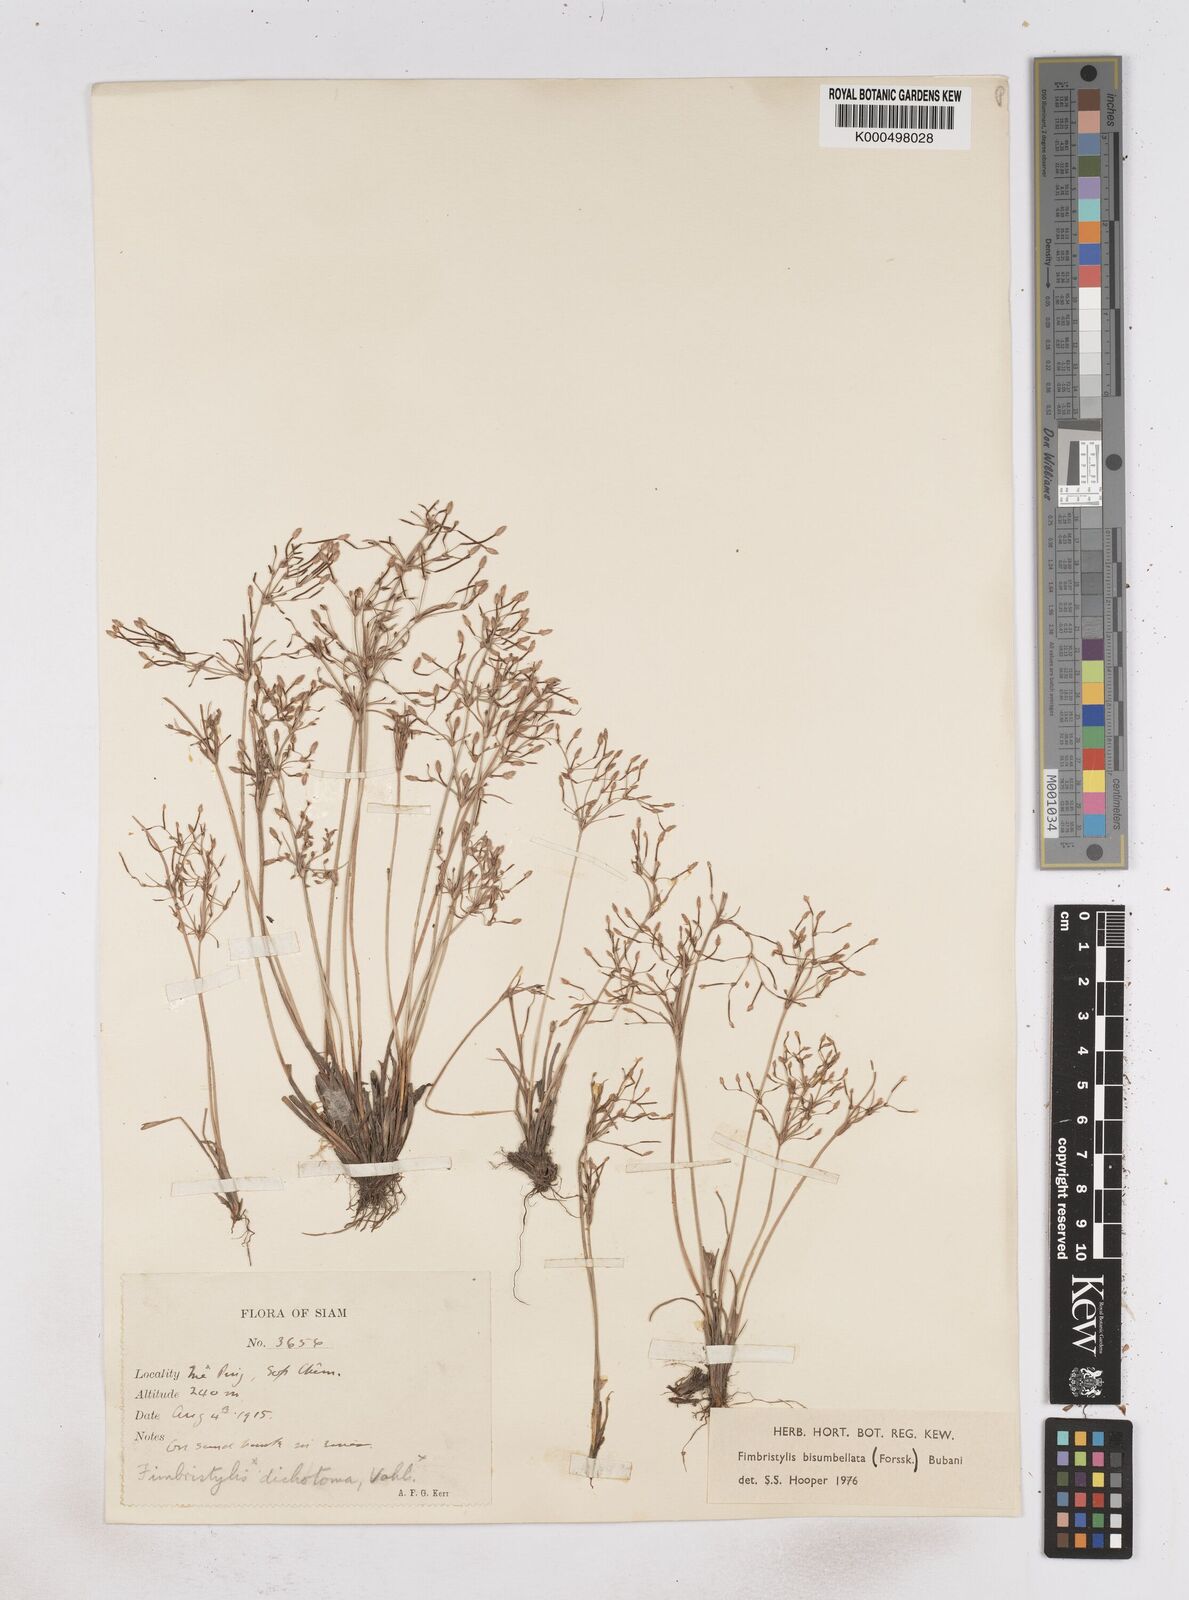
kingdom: Plantae
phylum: Tracheophyta
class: Liliopsida
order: Poales
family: Cyperaceae
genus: Fimbristylis
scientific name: Fimbristylis bisumbellata
